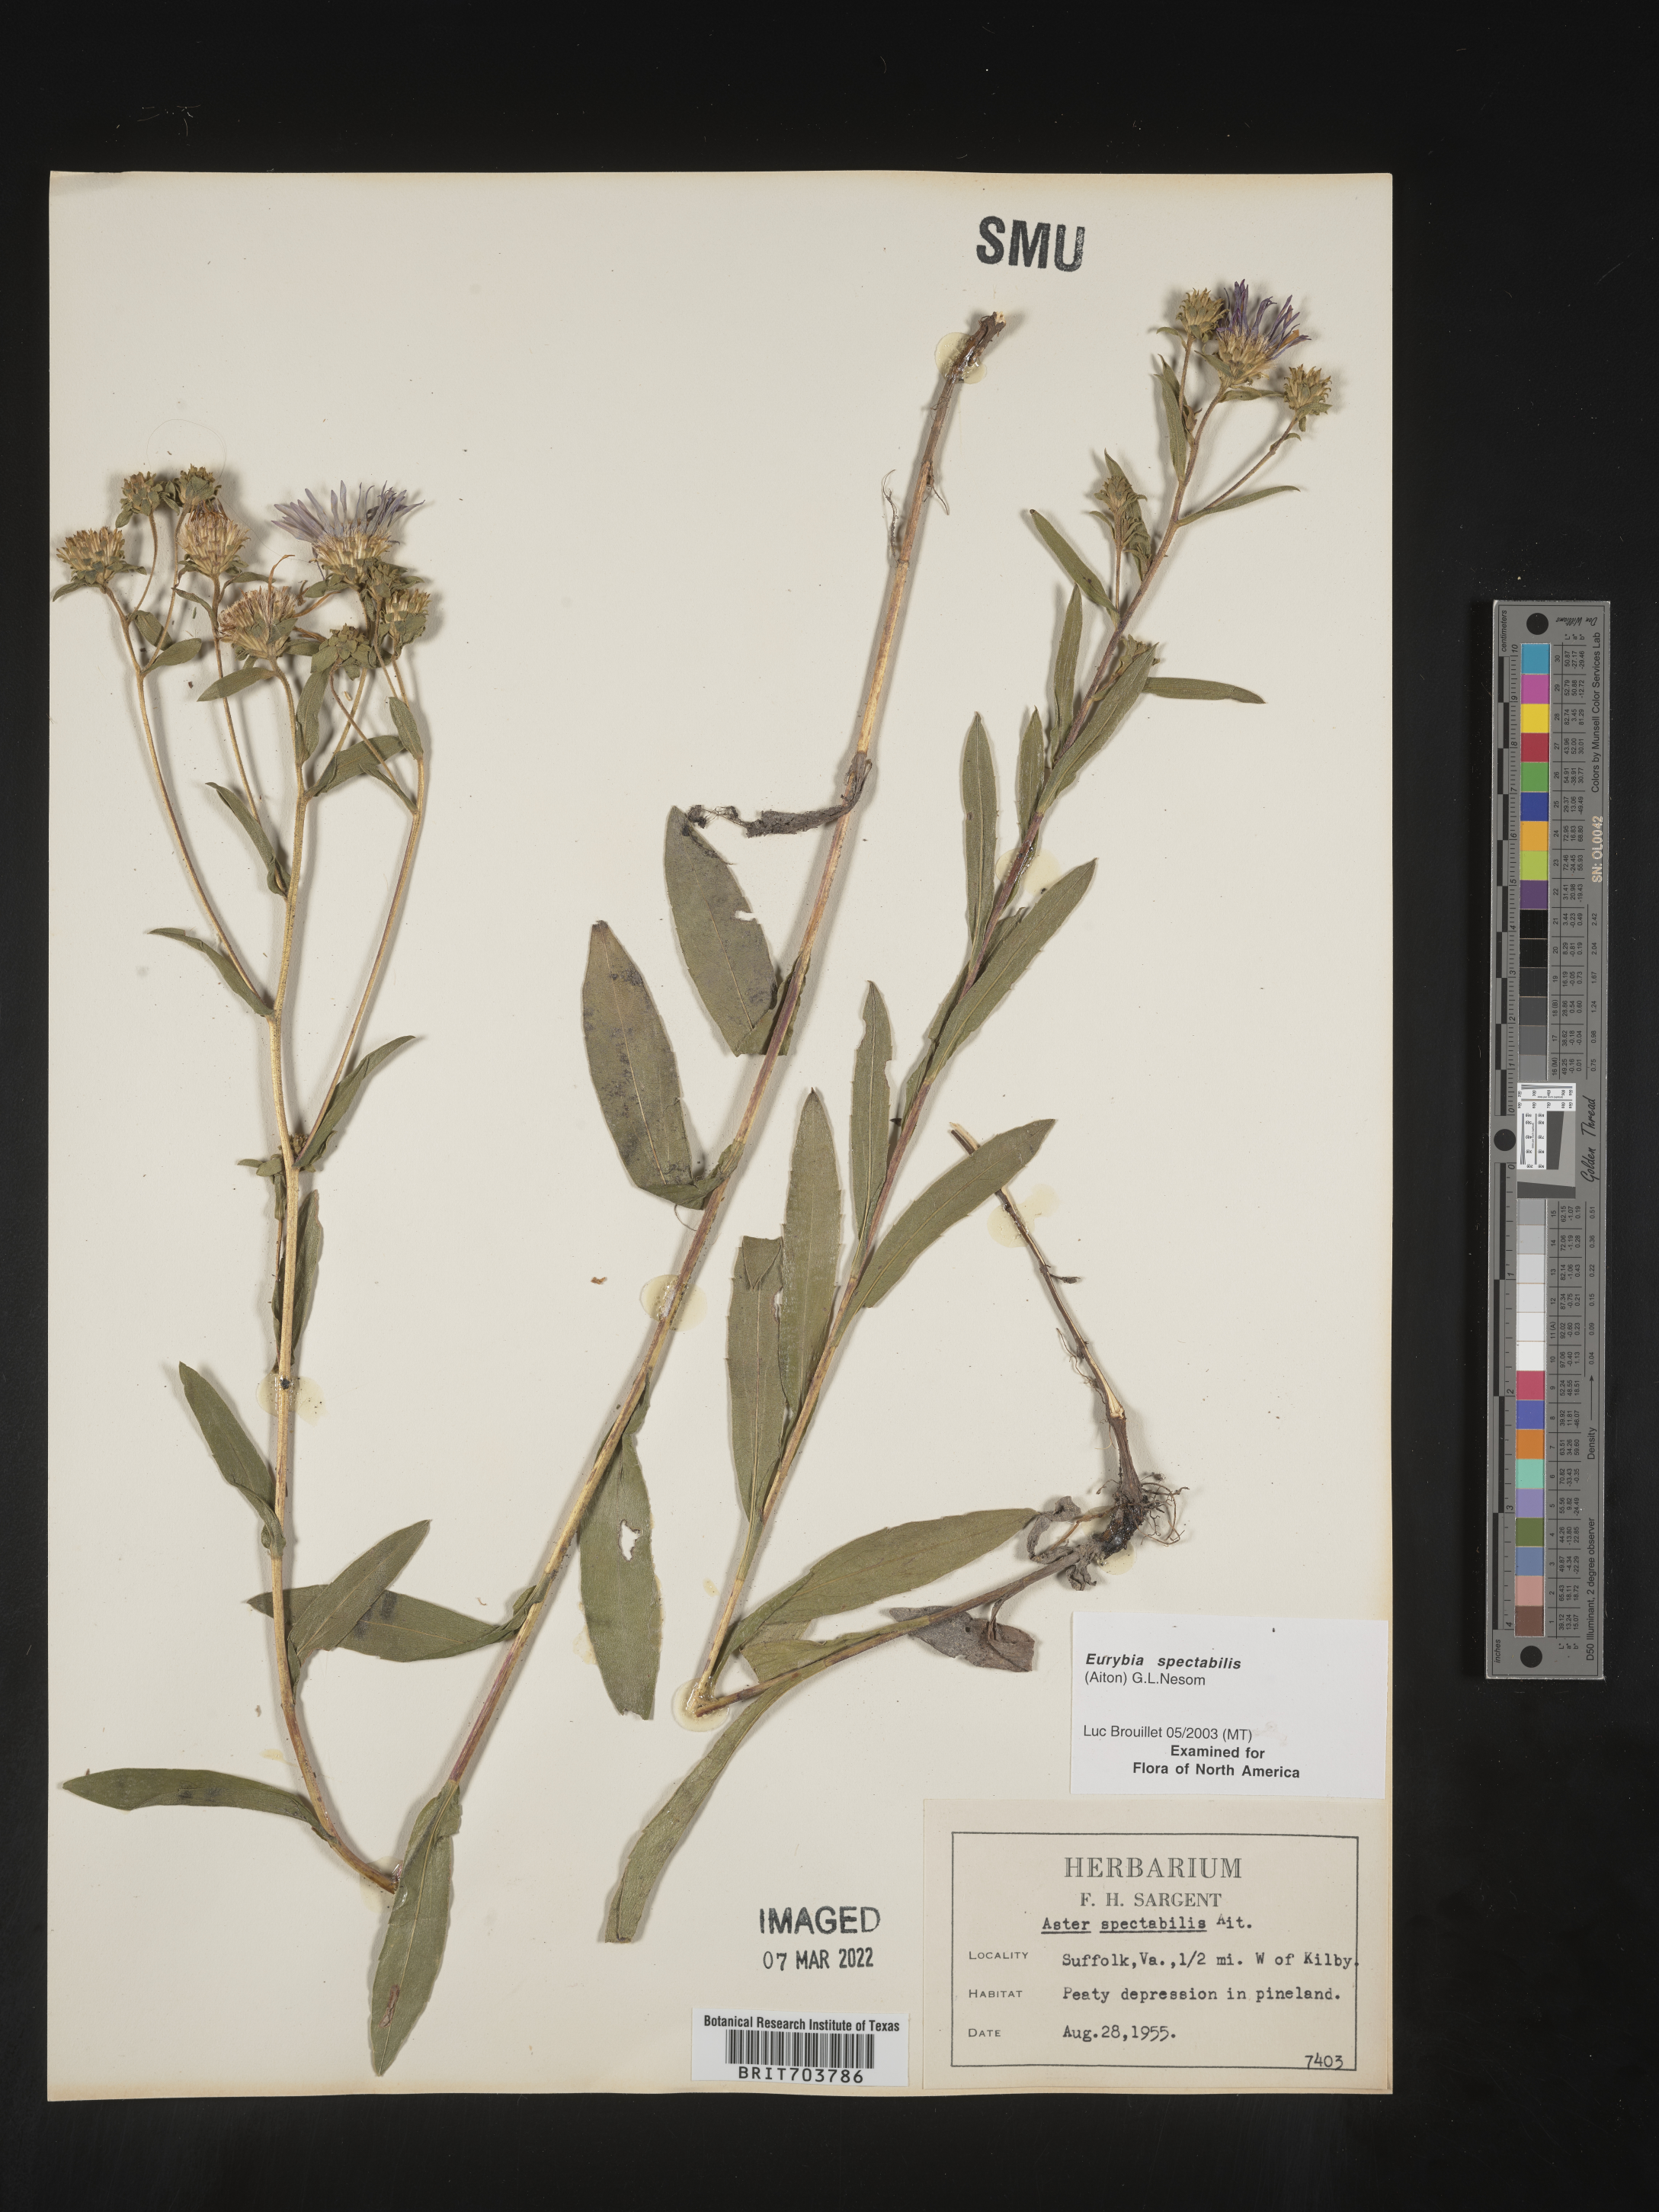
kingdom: Plantae
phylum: Tracheophyta
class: Magnoliopsida
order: Asterales
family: Asteraceae
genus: Eurybia
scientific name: Eurybia spectabilis
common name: Low showy aster
